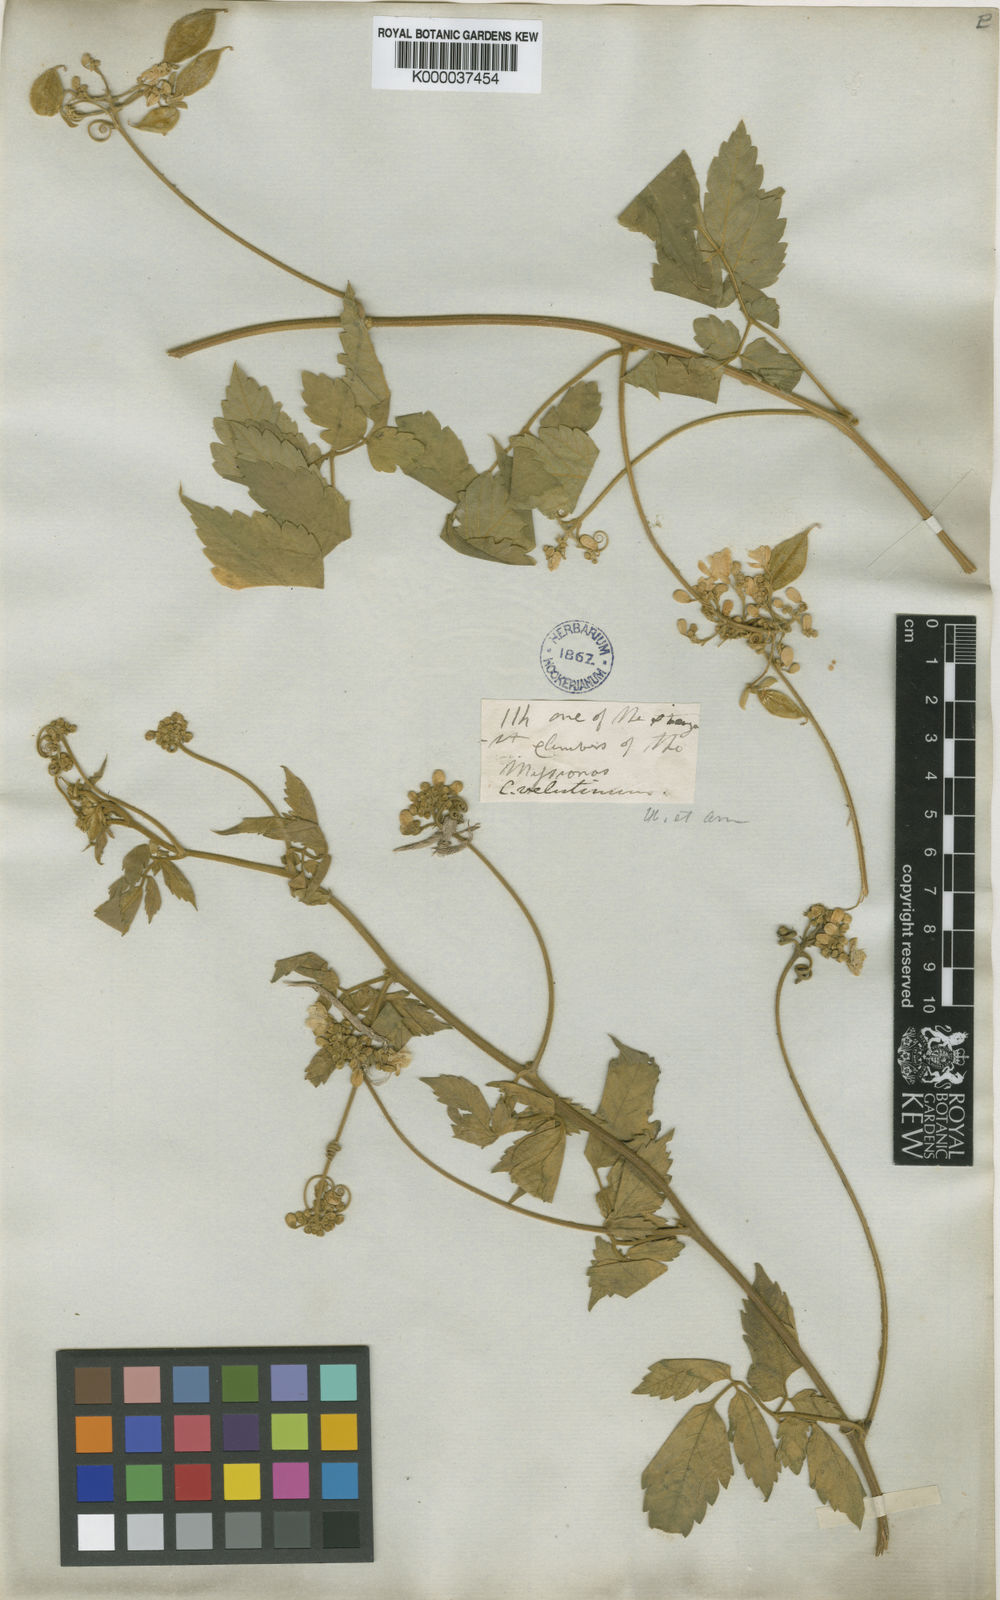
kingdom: Plantae
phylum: Tracheophyta
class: Magnoliopsida
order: Sapindales
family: Sapindaceae
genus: Cardiospermum
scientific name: Cardiospermum grandiflorum
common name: Balloon vine
